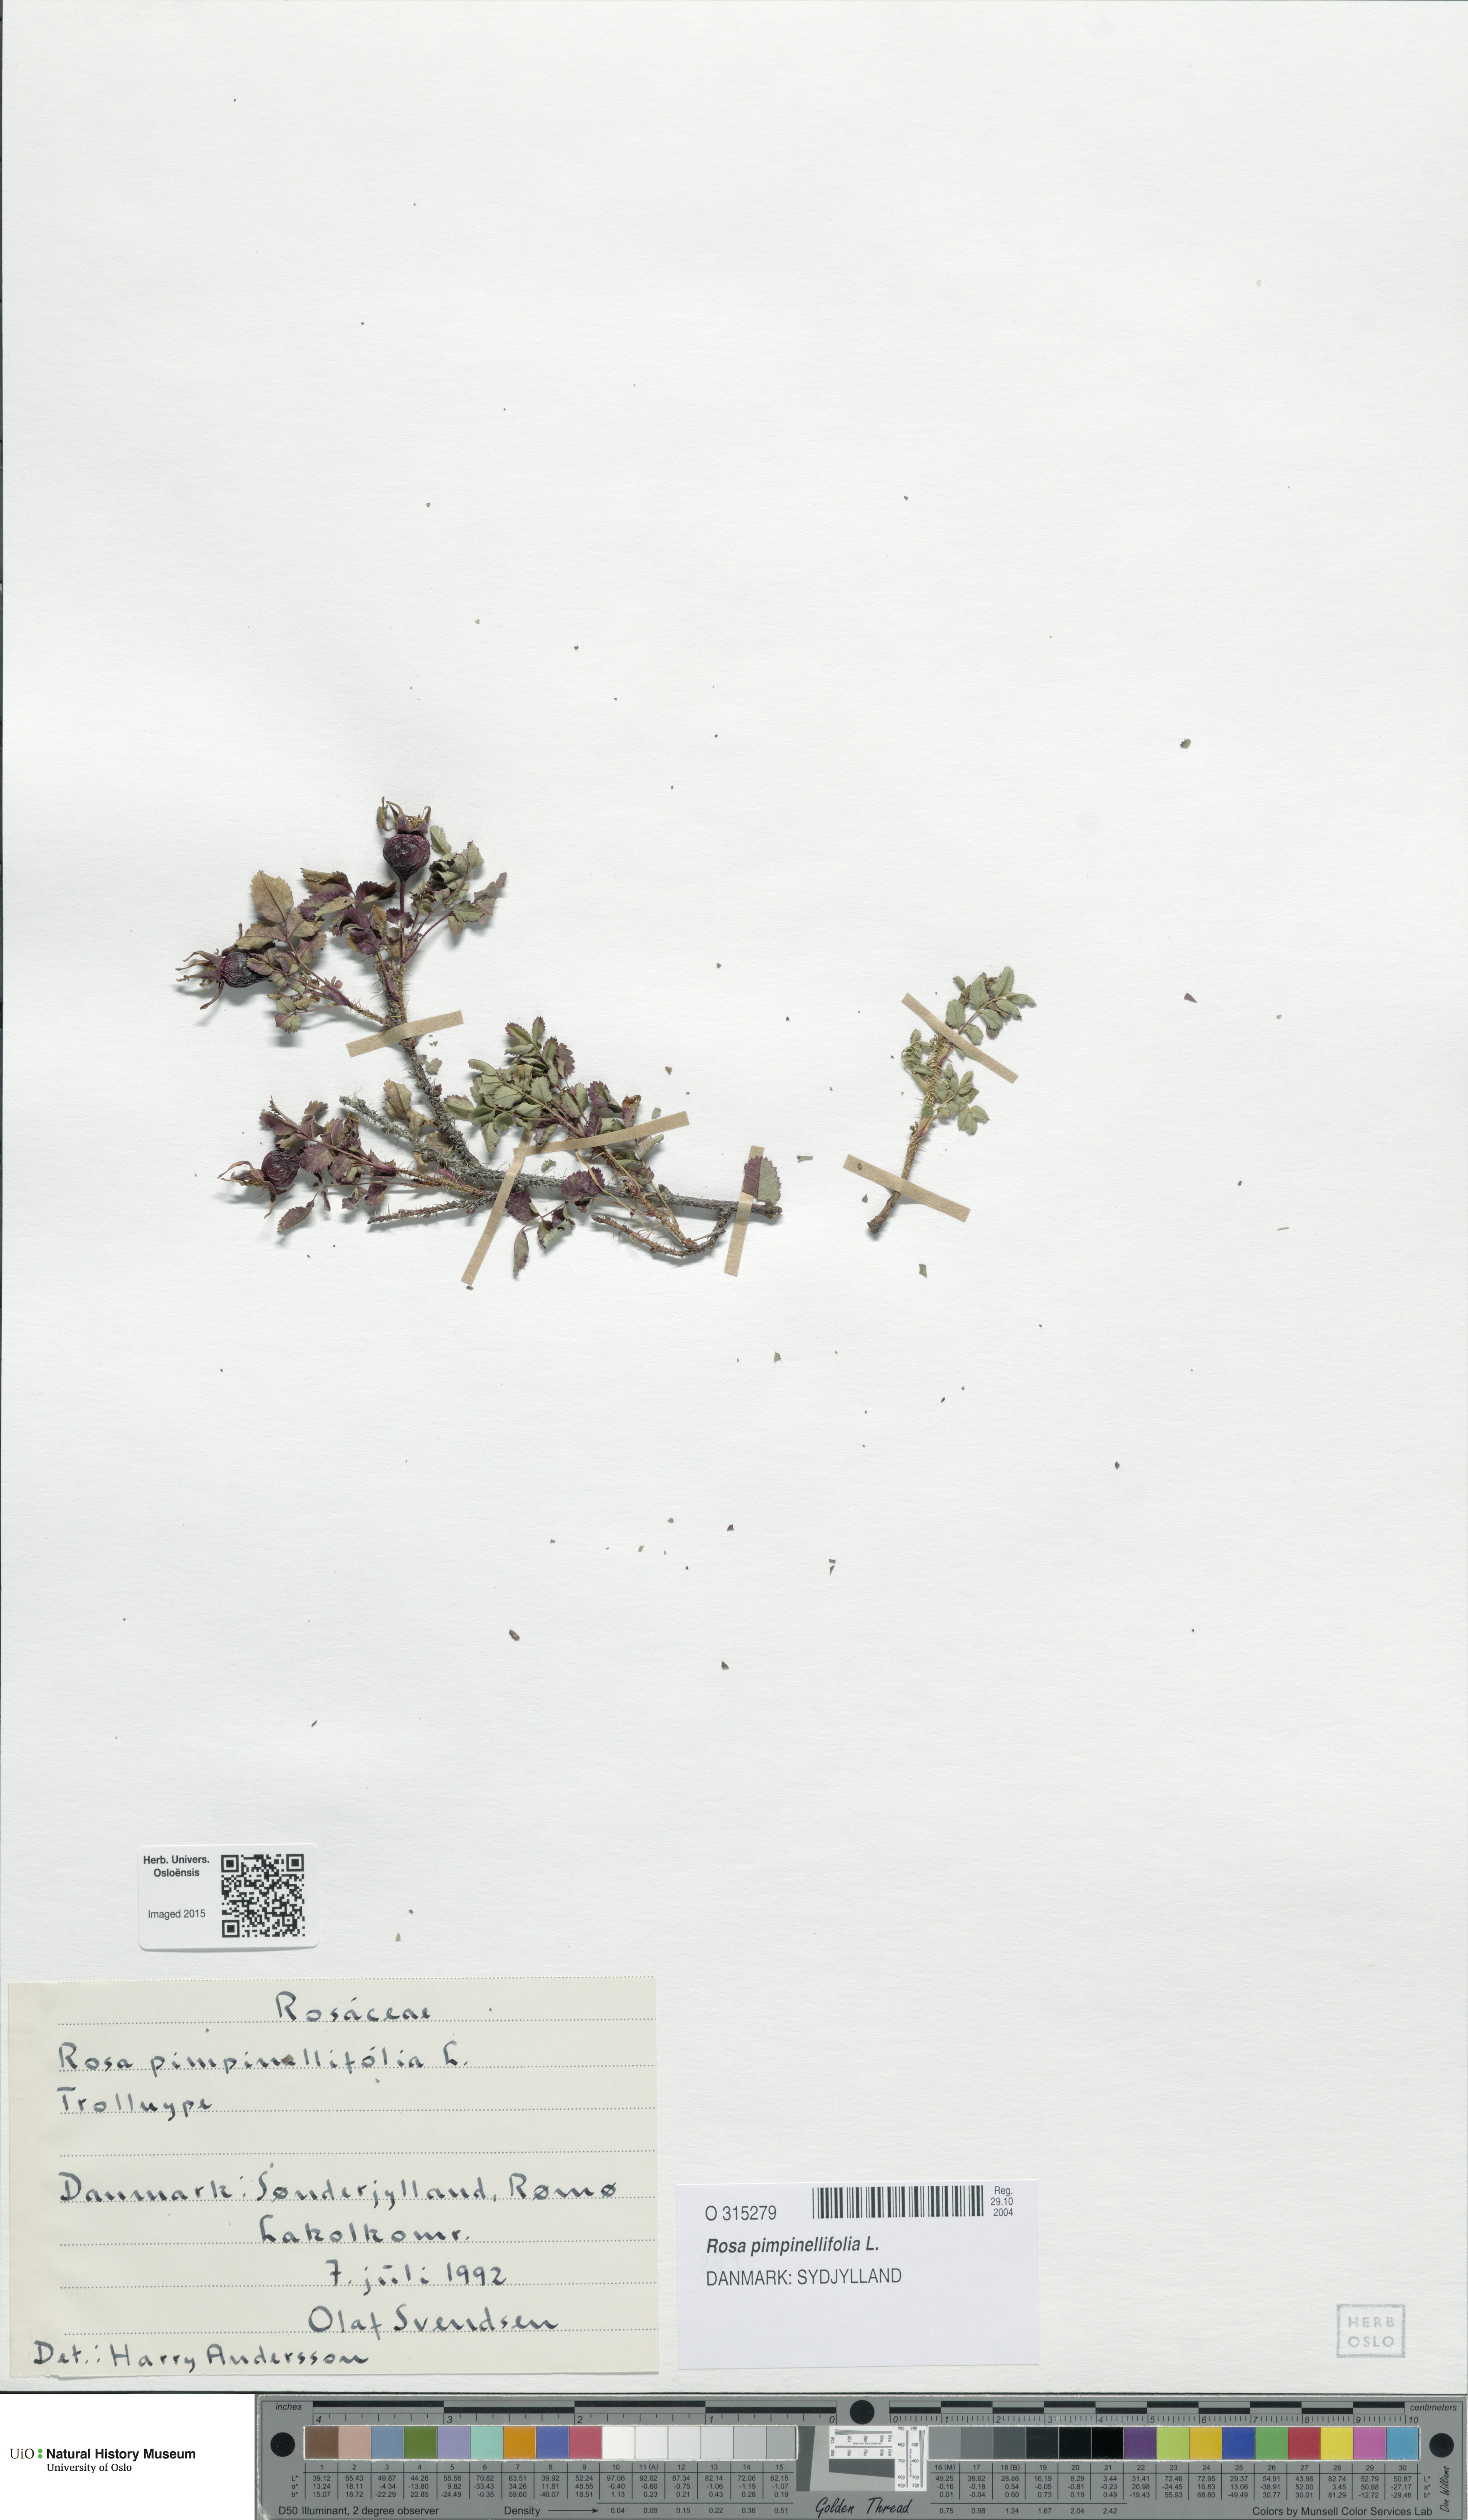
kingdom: Plantae
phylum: Tracheophyta
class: Magnoliopsida
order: Rosales
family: Rosaceae
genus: Rosa
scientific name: Rosa spinosissima
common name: Burnet rose
